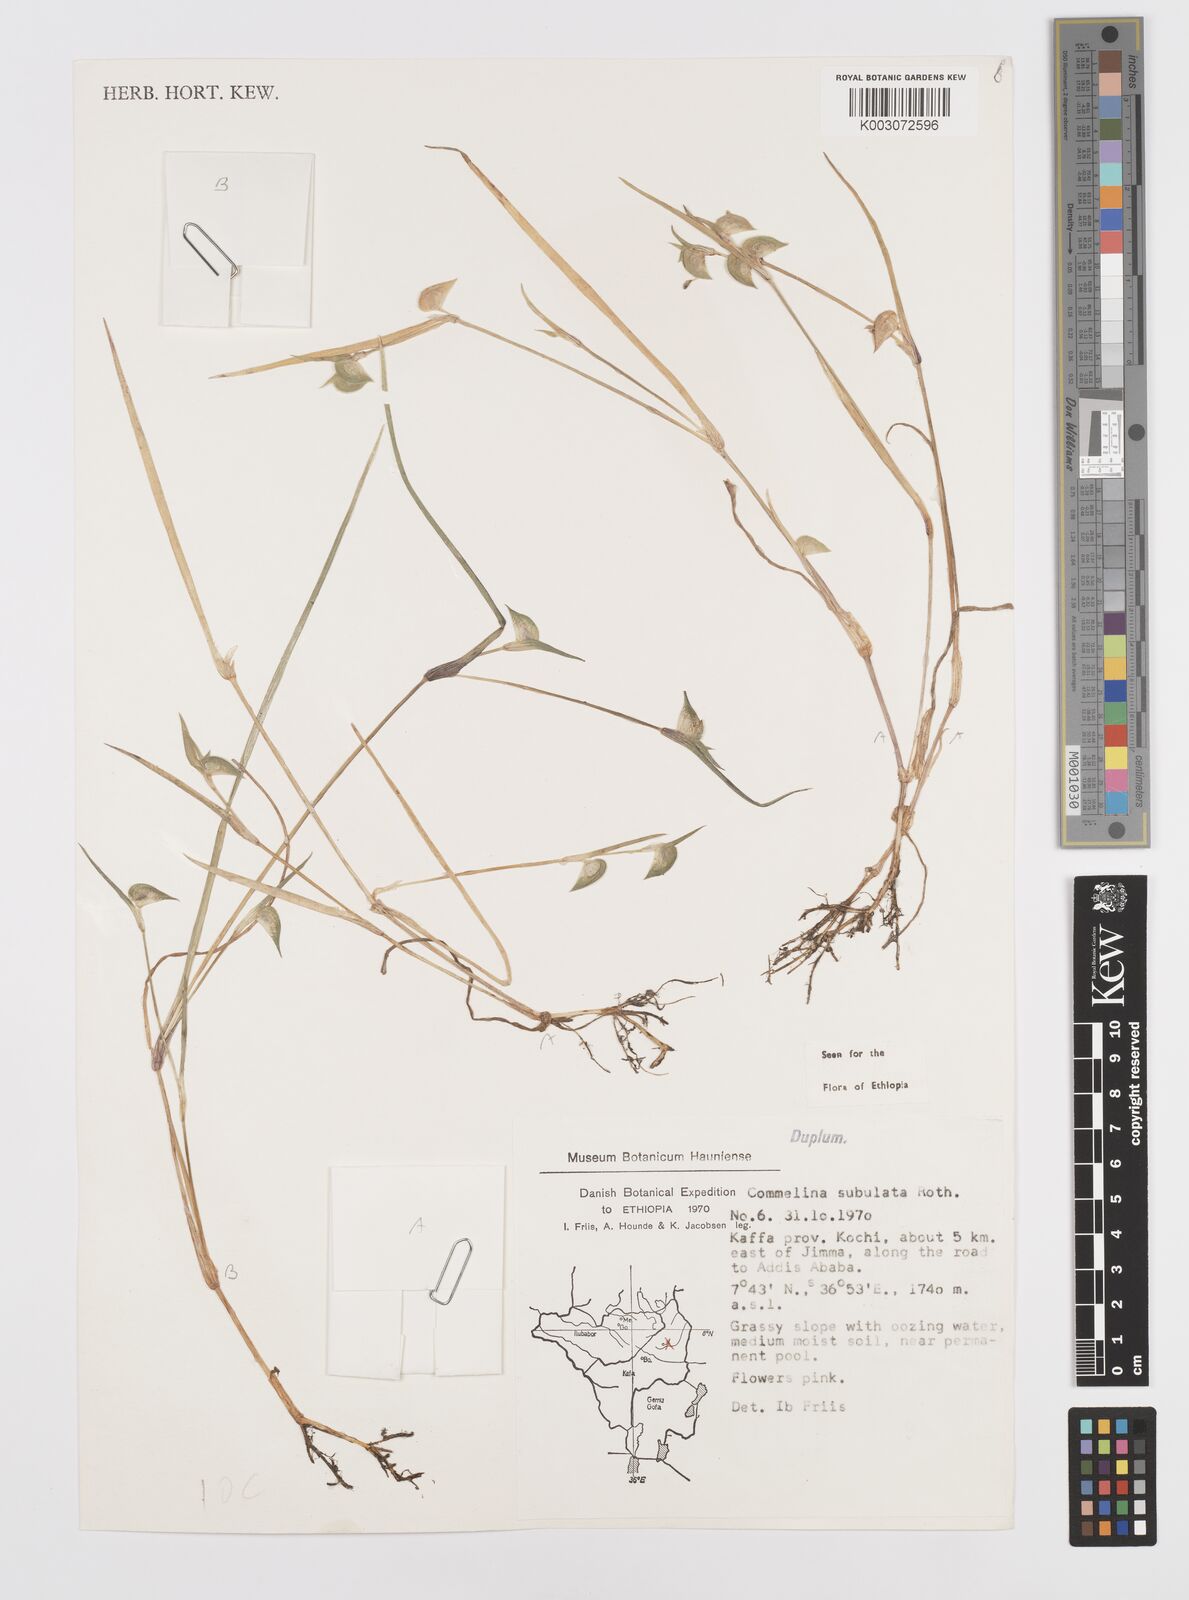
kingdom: Plantae
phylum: Tracheophyta
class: Liliopsida
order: Commelinales
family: Commelinaceae
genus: Commelina
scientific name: Commelina subulata
